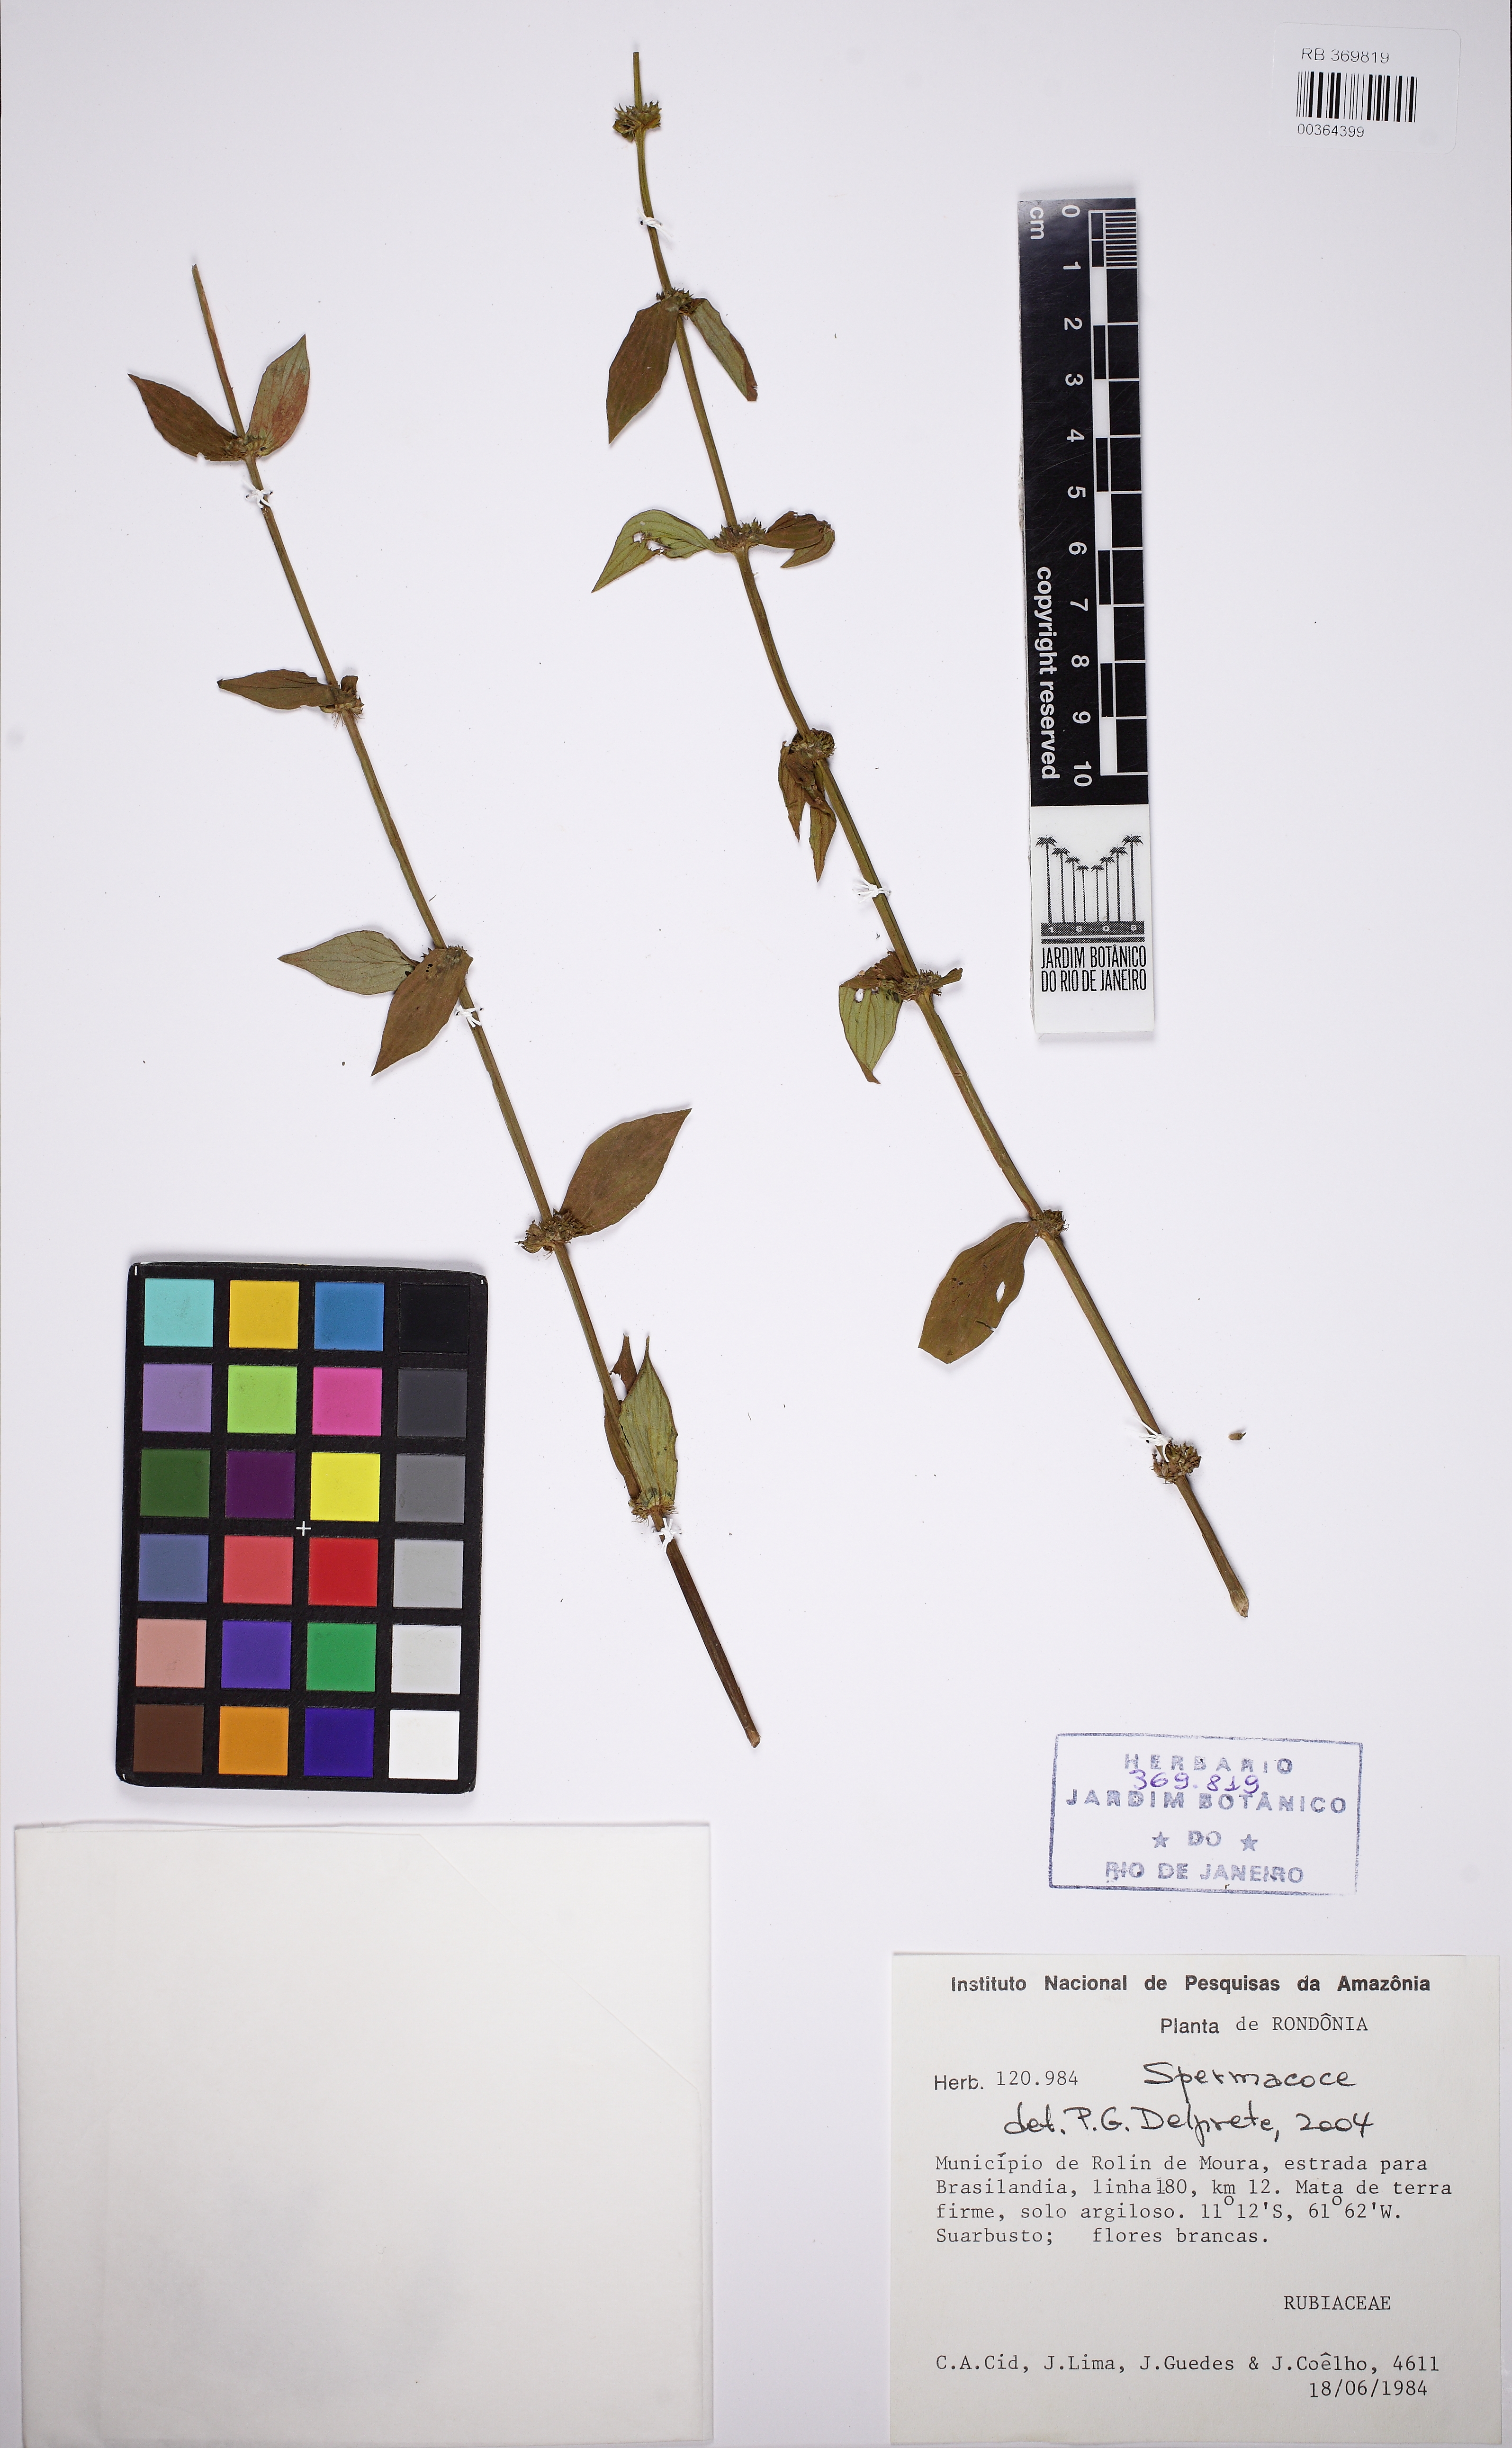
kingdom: Plantae
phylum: Tracheophyta
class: Magnoliopsida
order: Gentianales
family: Rubiaceae
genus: Spermacoce
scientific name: Spermacoce latifolia
